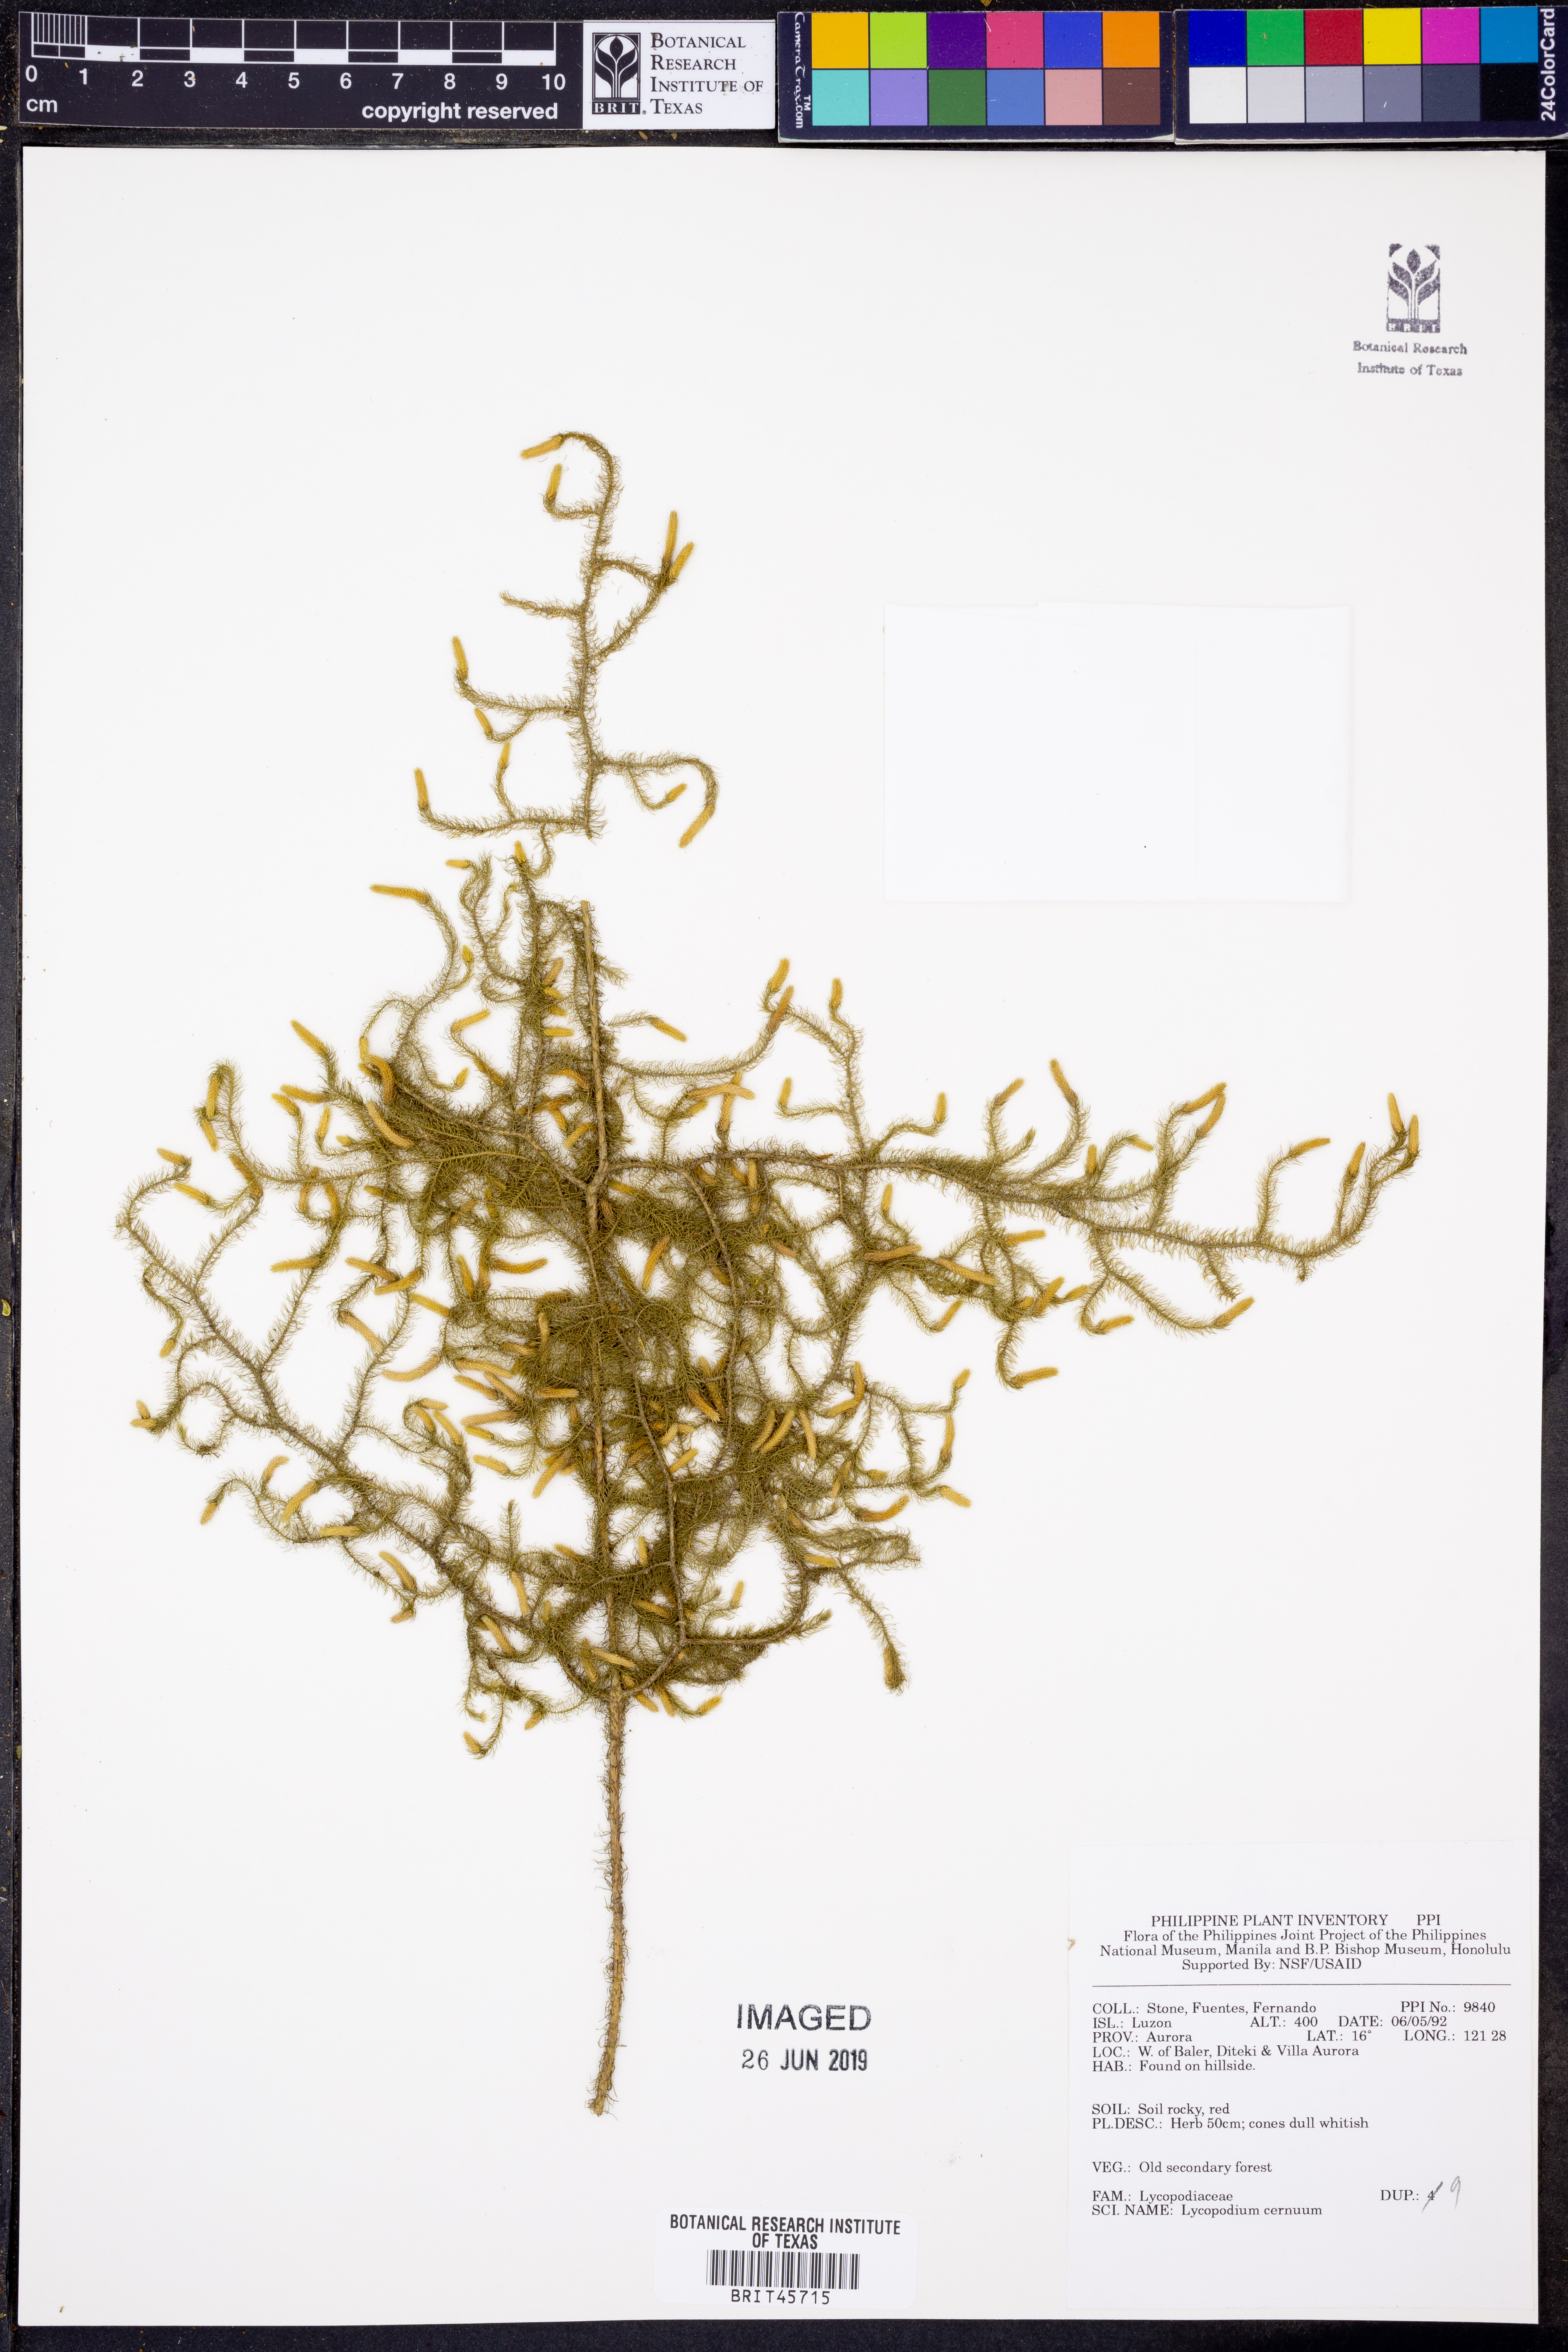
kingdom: Plantae
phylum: Tracheophyta
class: Lycopodiopsida
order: Lycopodiales
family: Lycopodiaceae
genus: Palhinhaea
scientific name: Palhinhaea cernua
